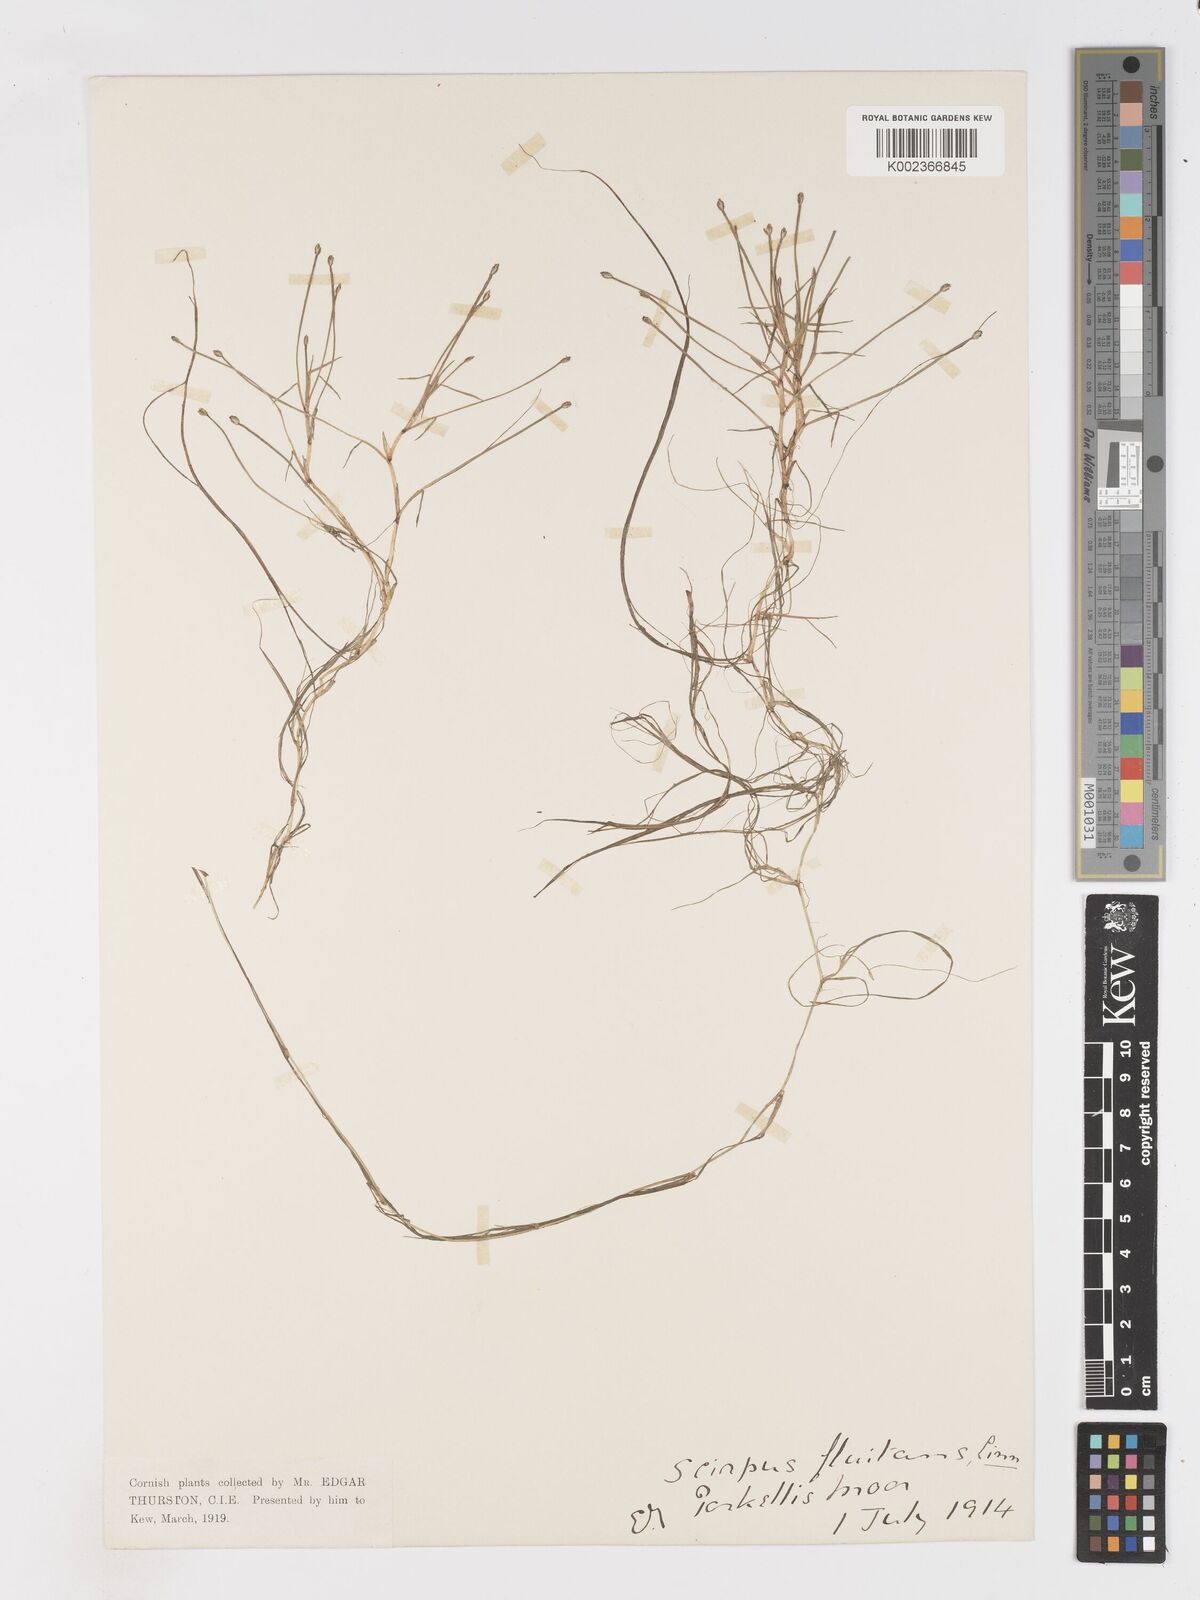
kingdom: Plantae
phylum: Tracheophyta
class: Liliopsida
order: Poales
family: Cyperaceae
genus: Isolepis
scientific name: Isolepis fluitans
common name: Floating club-rush
